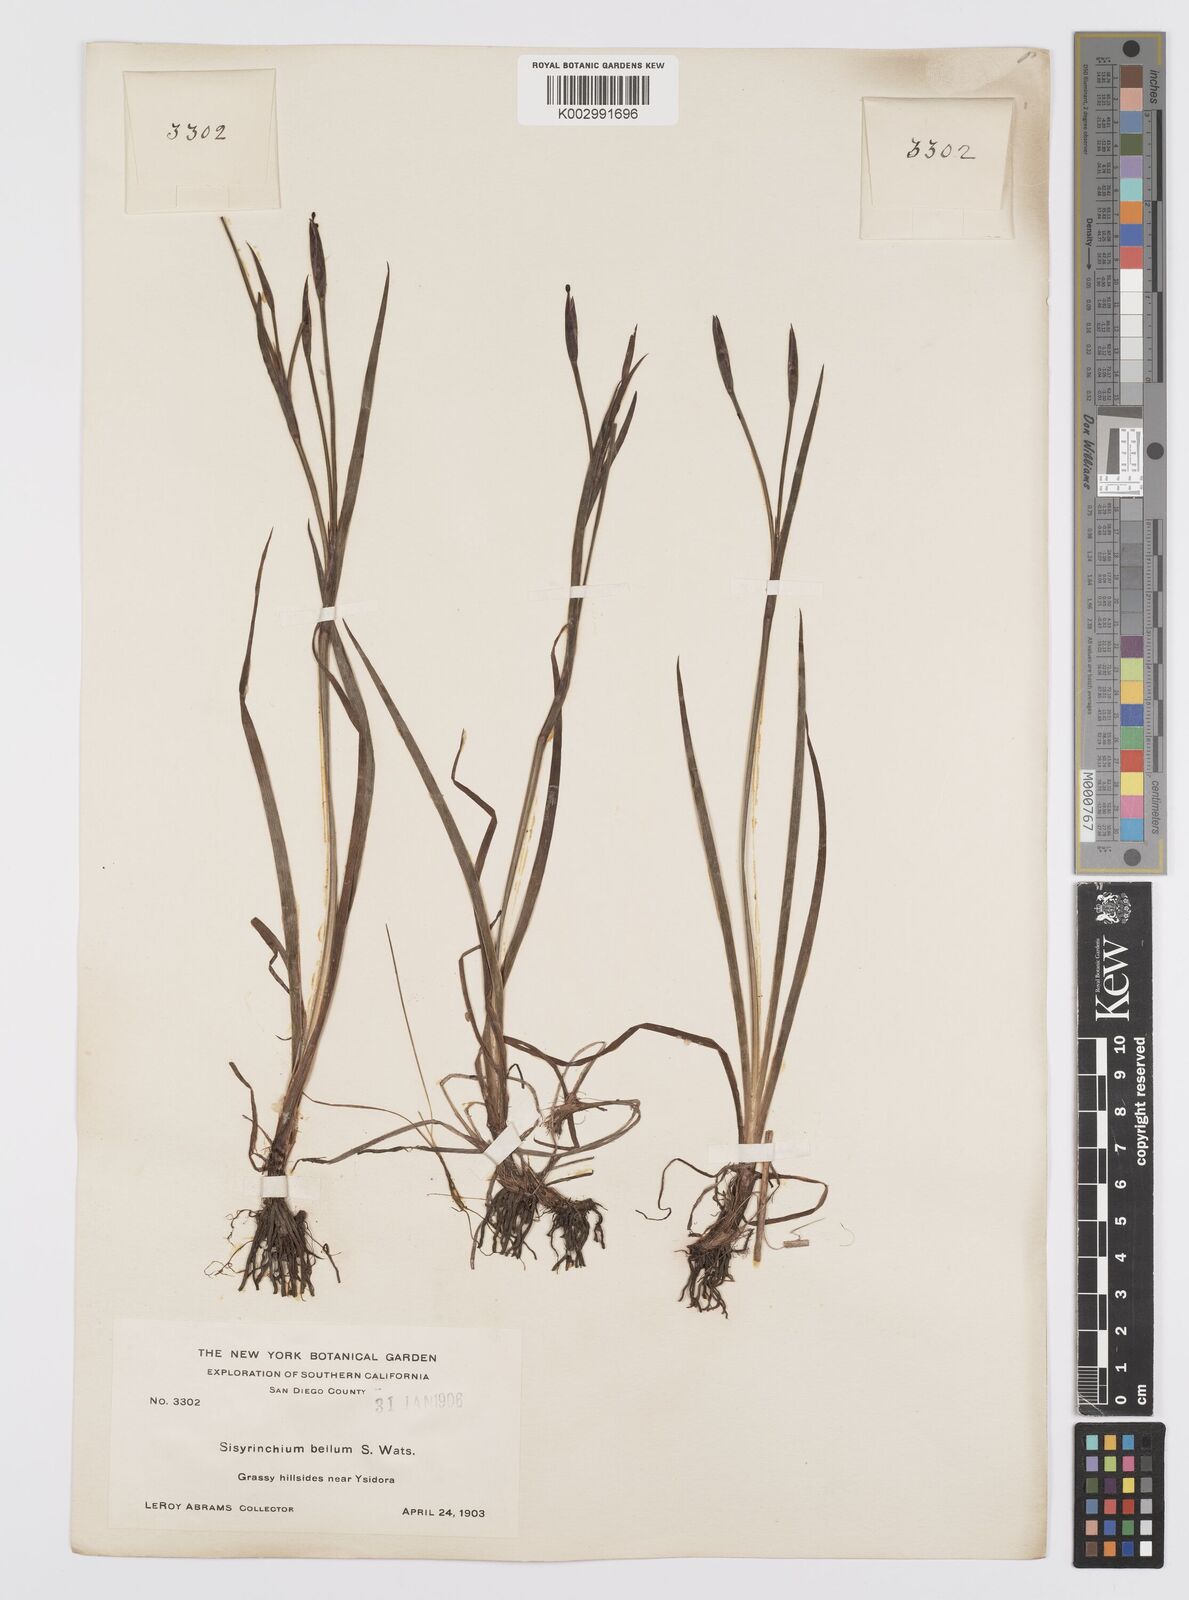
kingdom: Plantae
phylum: Tracheophyta
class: Liliopsida
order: Asparagales
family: Iridaceae
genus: Sisyrinchium
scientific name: Sisyrinchium bellum
